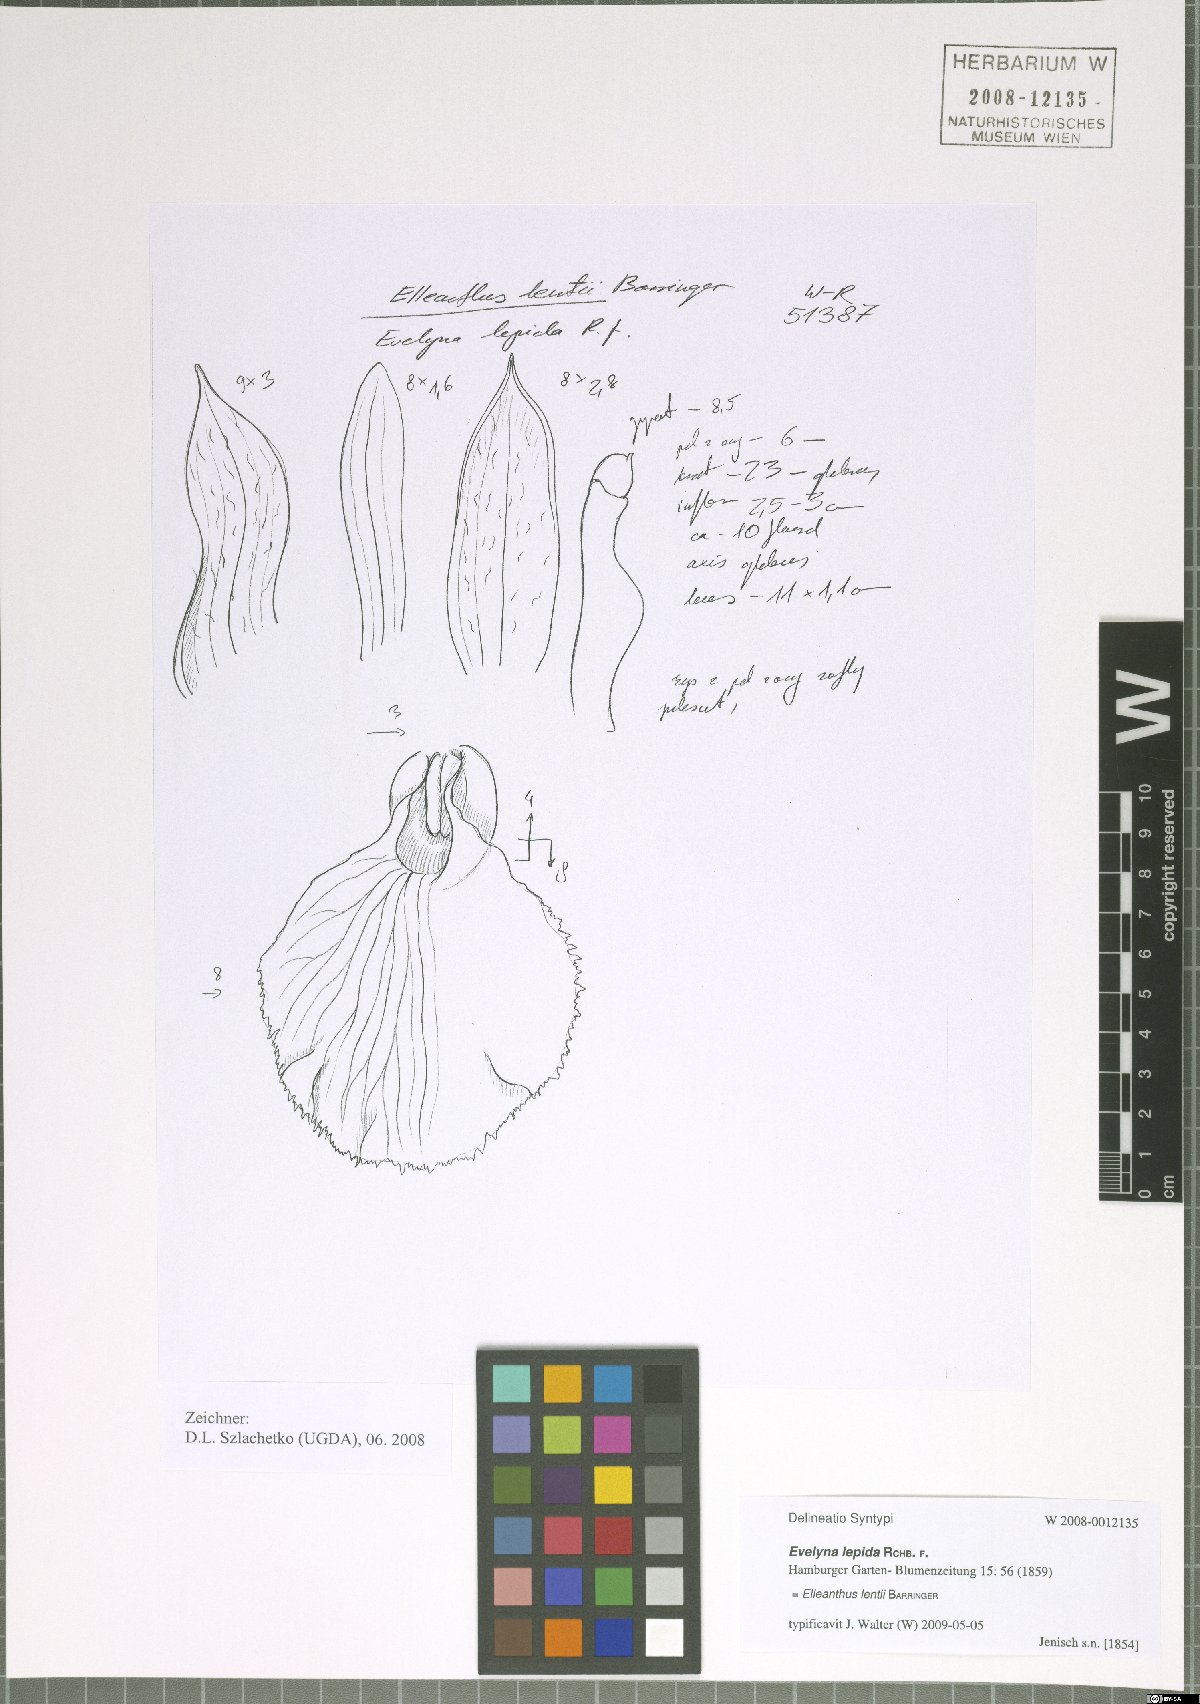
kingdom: Plantae
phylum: Tracheophyta
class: Liliopsida
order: Asparagales
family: Orchidaceae
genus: Elleanthus
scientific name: Elleanthus lentii
